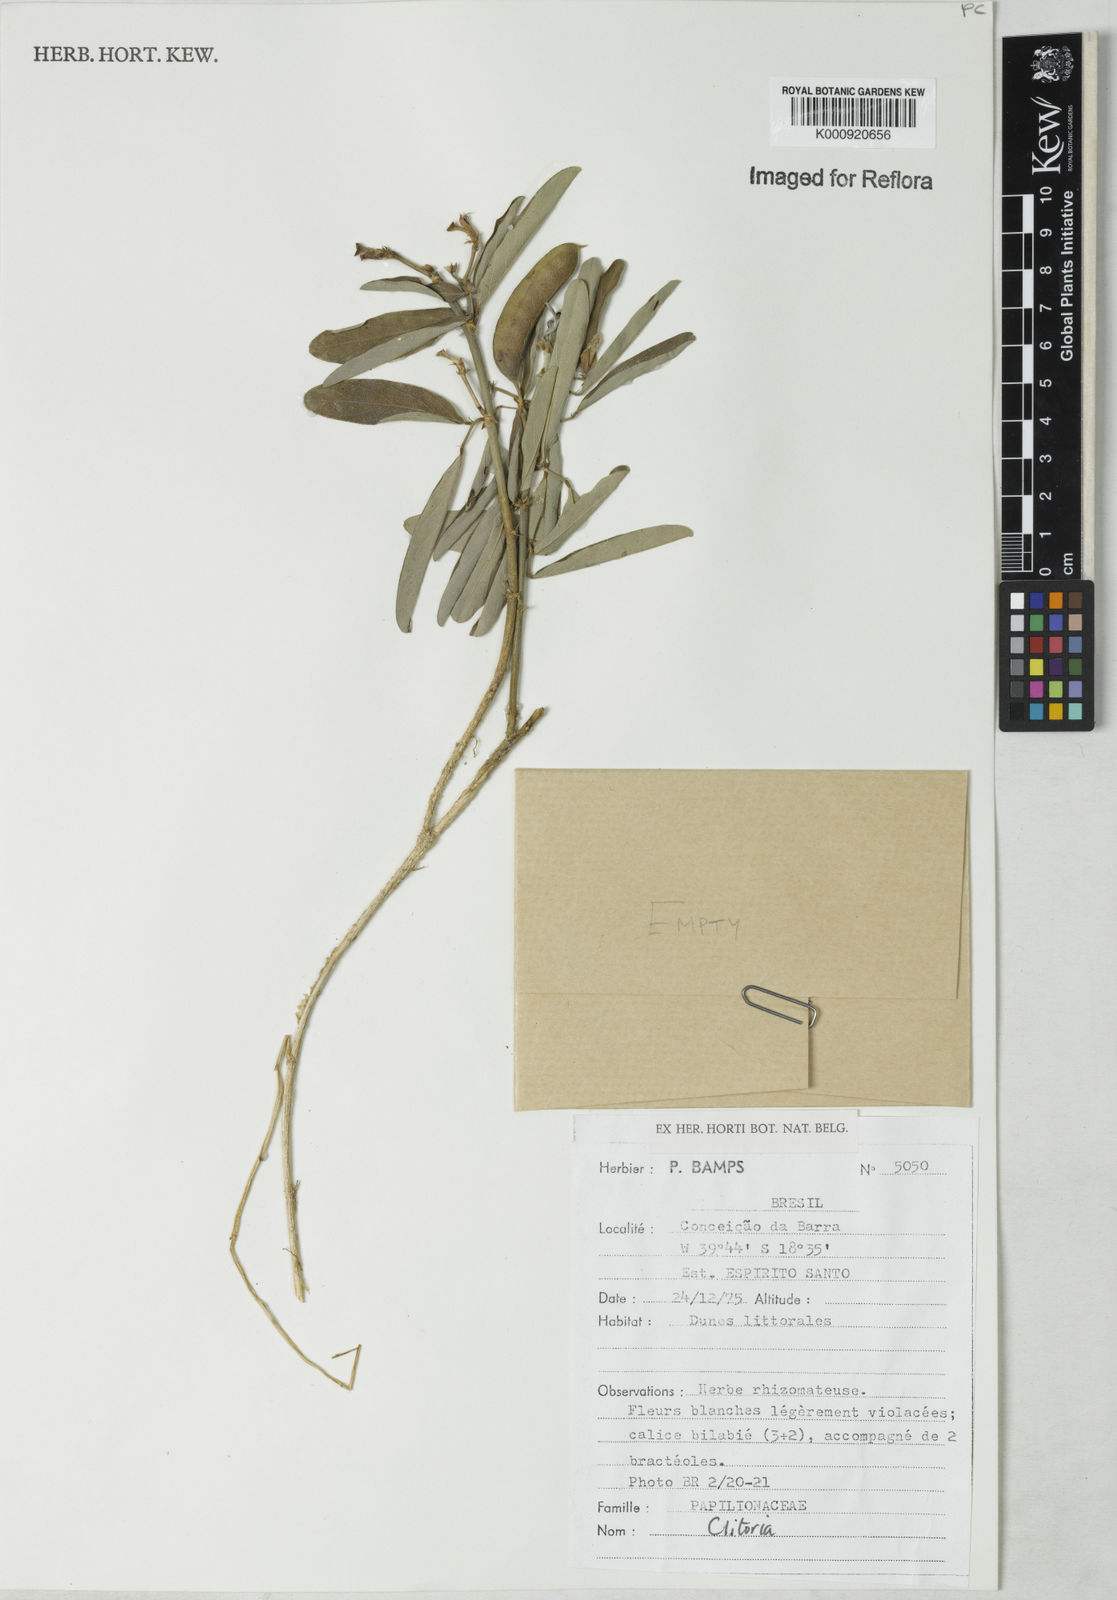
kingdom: Plantae
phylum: Tracheophyta
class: Magnoliopsida
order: Fabales
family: Fabaceae
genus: Clitoria
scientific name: Clitoria
